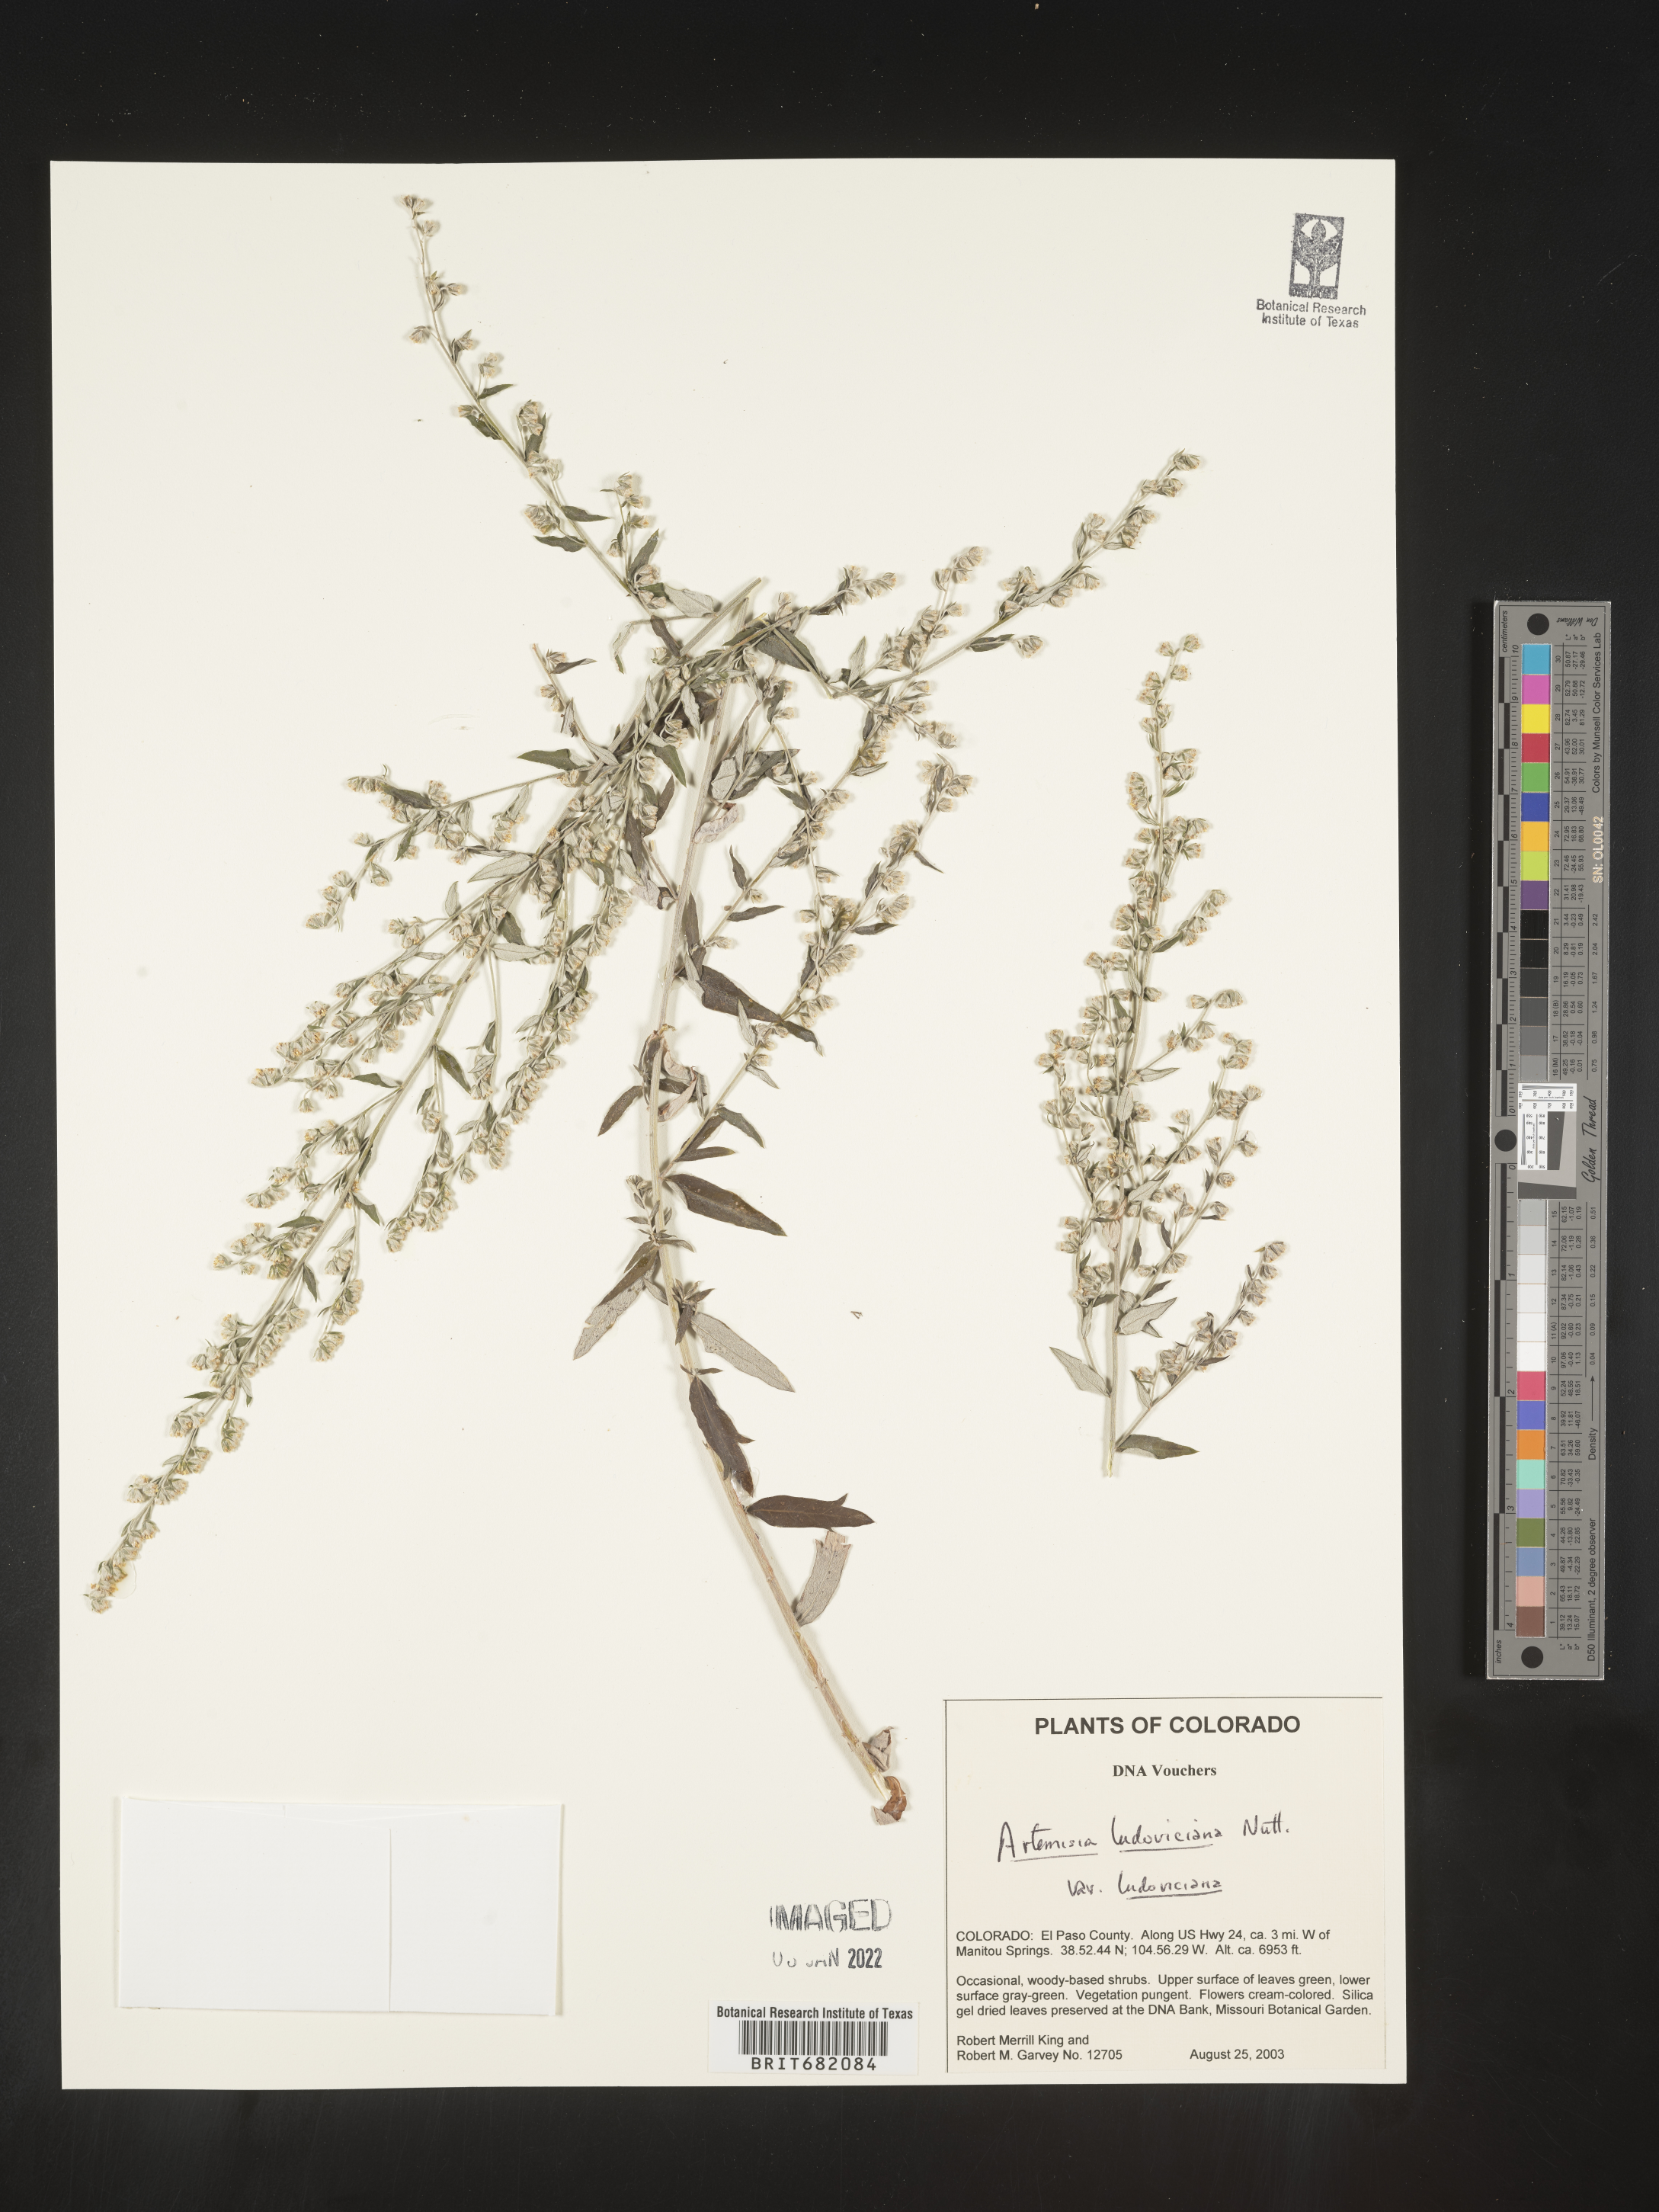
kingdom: Plantae
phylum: Tracheophyta
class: Magnoliopsida
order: Asterales
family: Asteraceae
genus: Artemisia
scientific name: Artemisia ludoviciana
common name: Western mugwort
